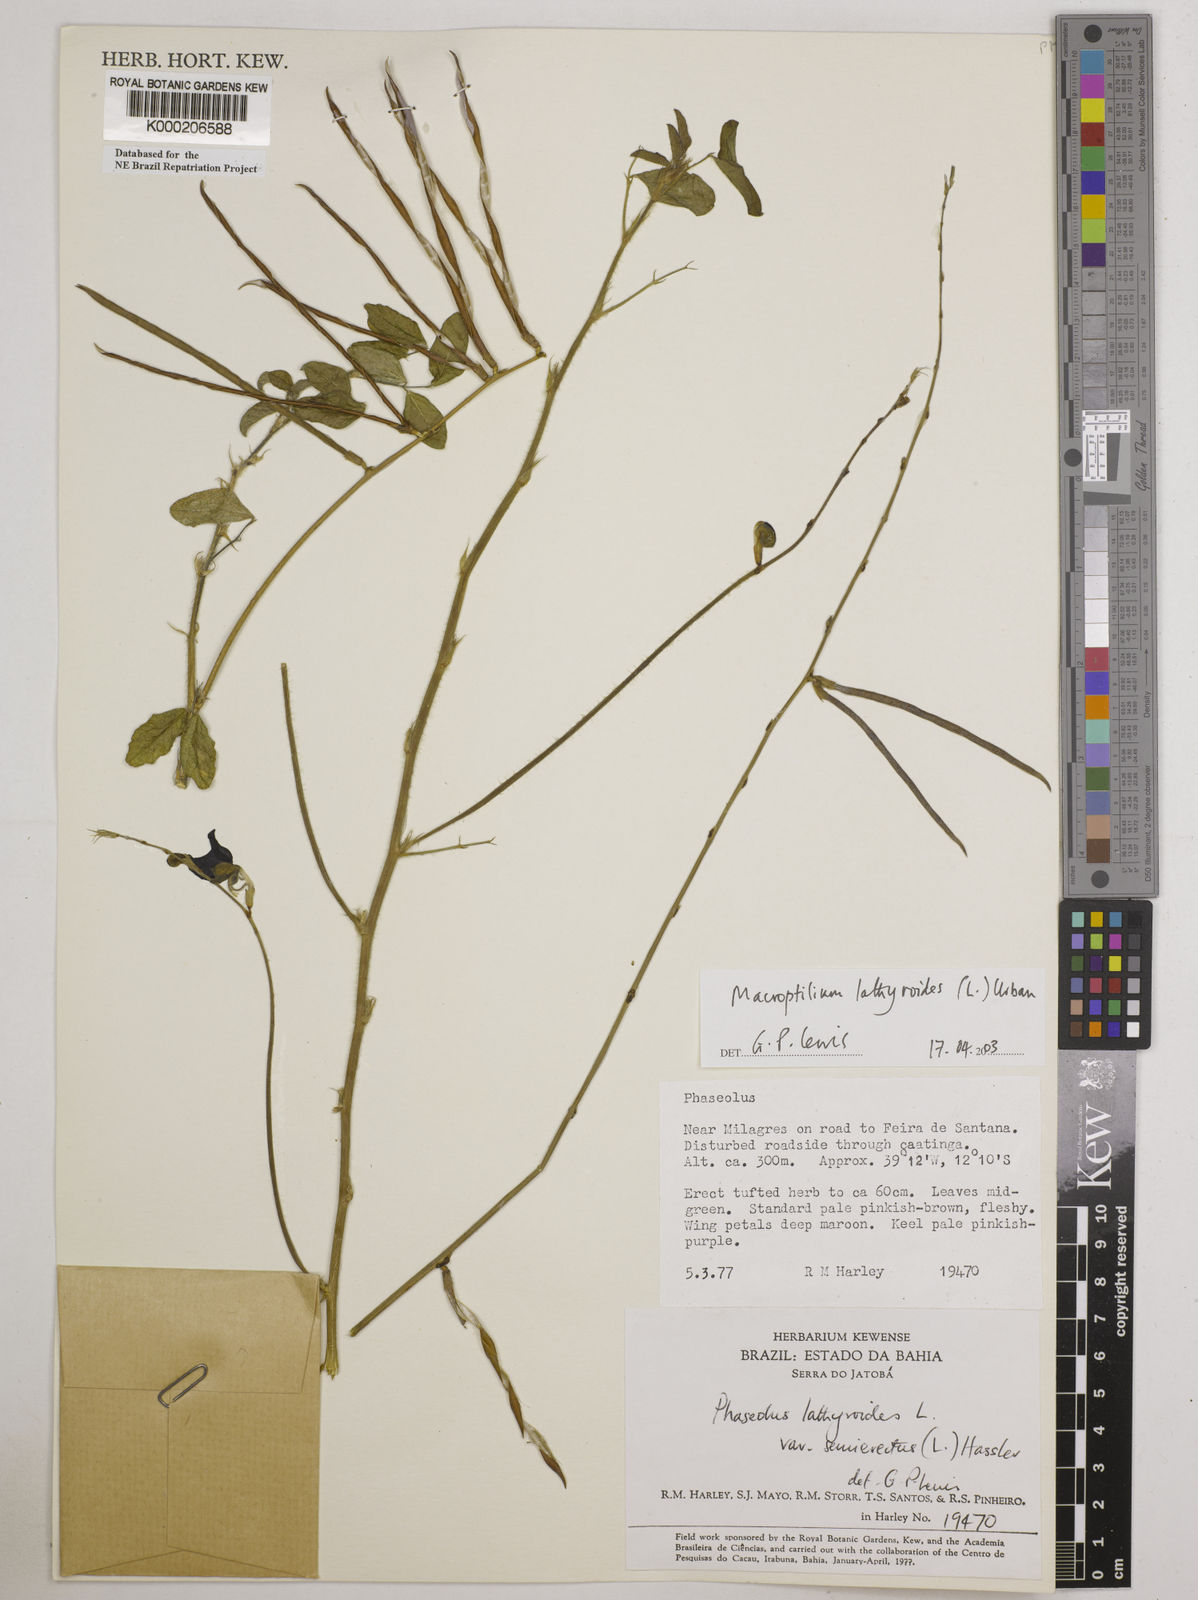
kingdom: Plantae
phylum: Tracheophyta
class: Magnoliopsida
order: Fabales
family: Fabaceae
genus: Macroptilium
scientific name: Macroptilium lathyroides
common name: Wild bushbean
